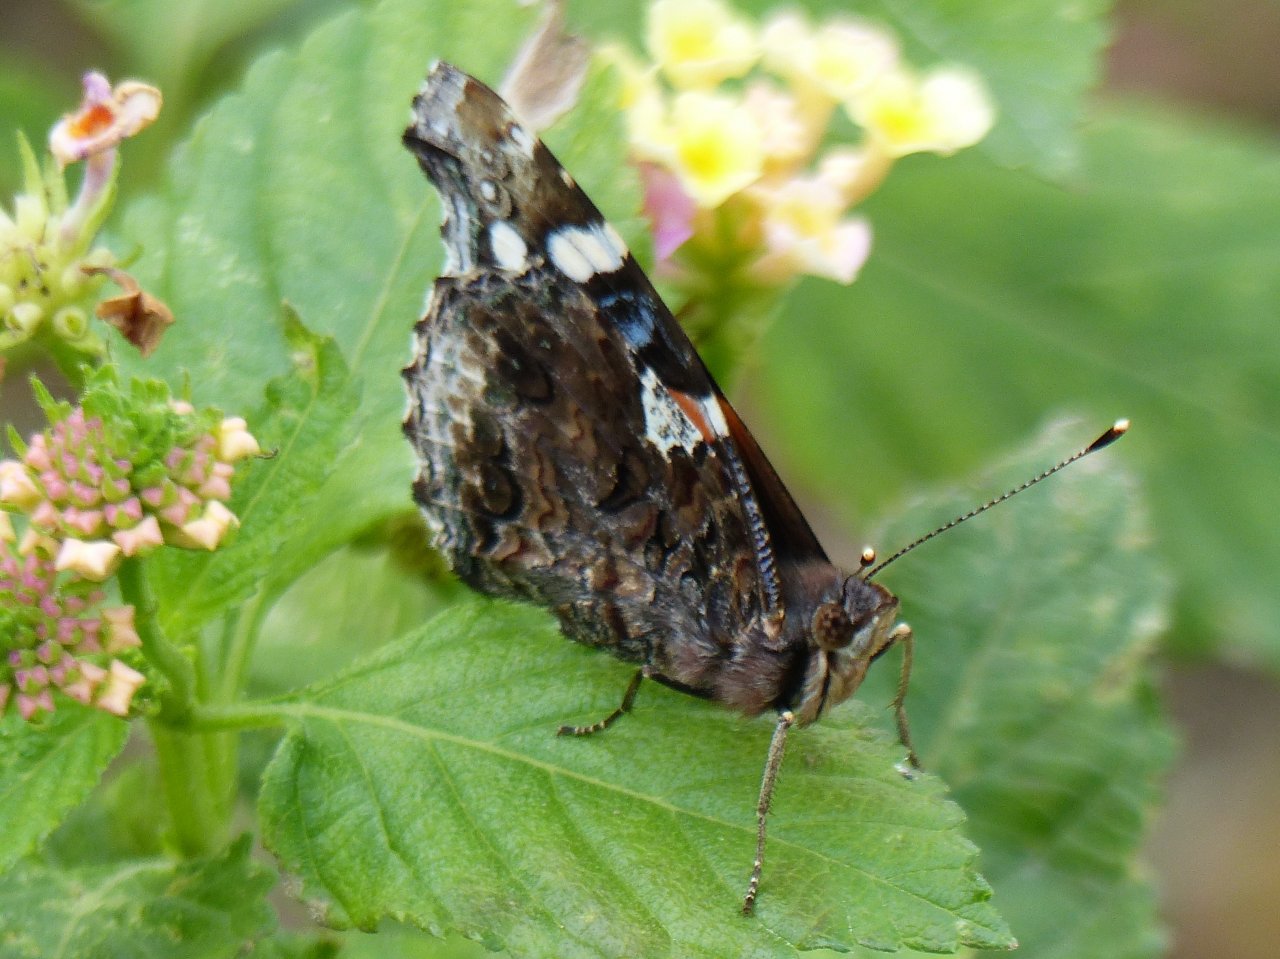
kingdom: Animalia
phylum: Arthropoda
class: Insecta
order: Lepidoptera
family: Nymphalidae
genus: Vanessa
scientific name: Vanessa atalanta
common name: Red Admiral
